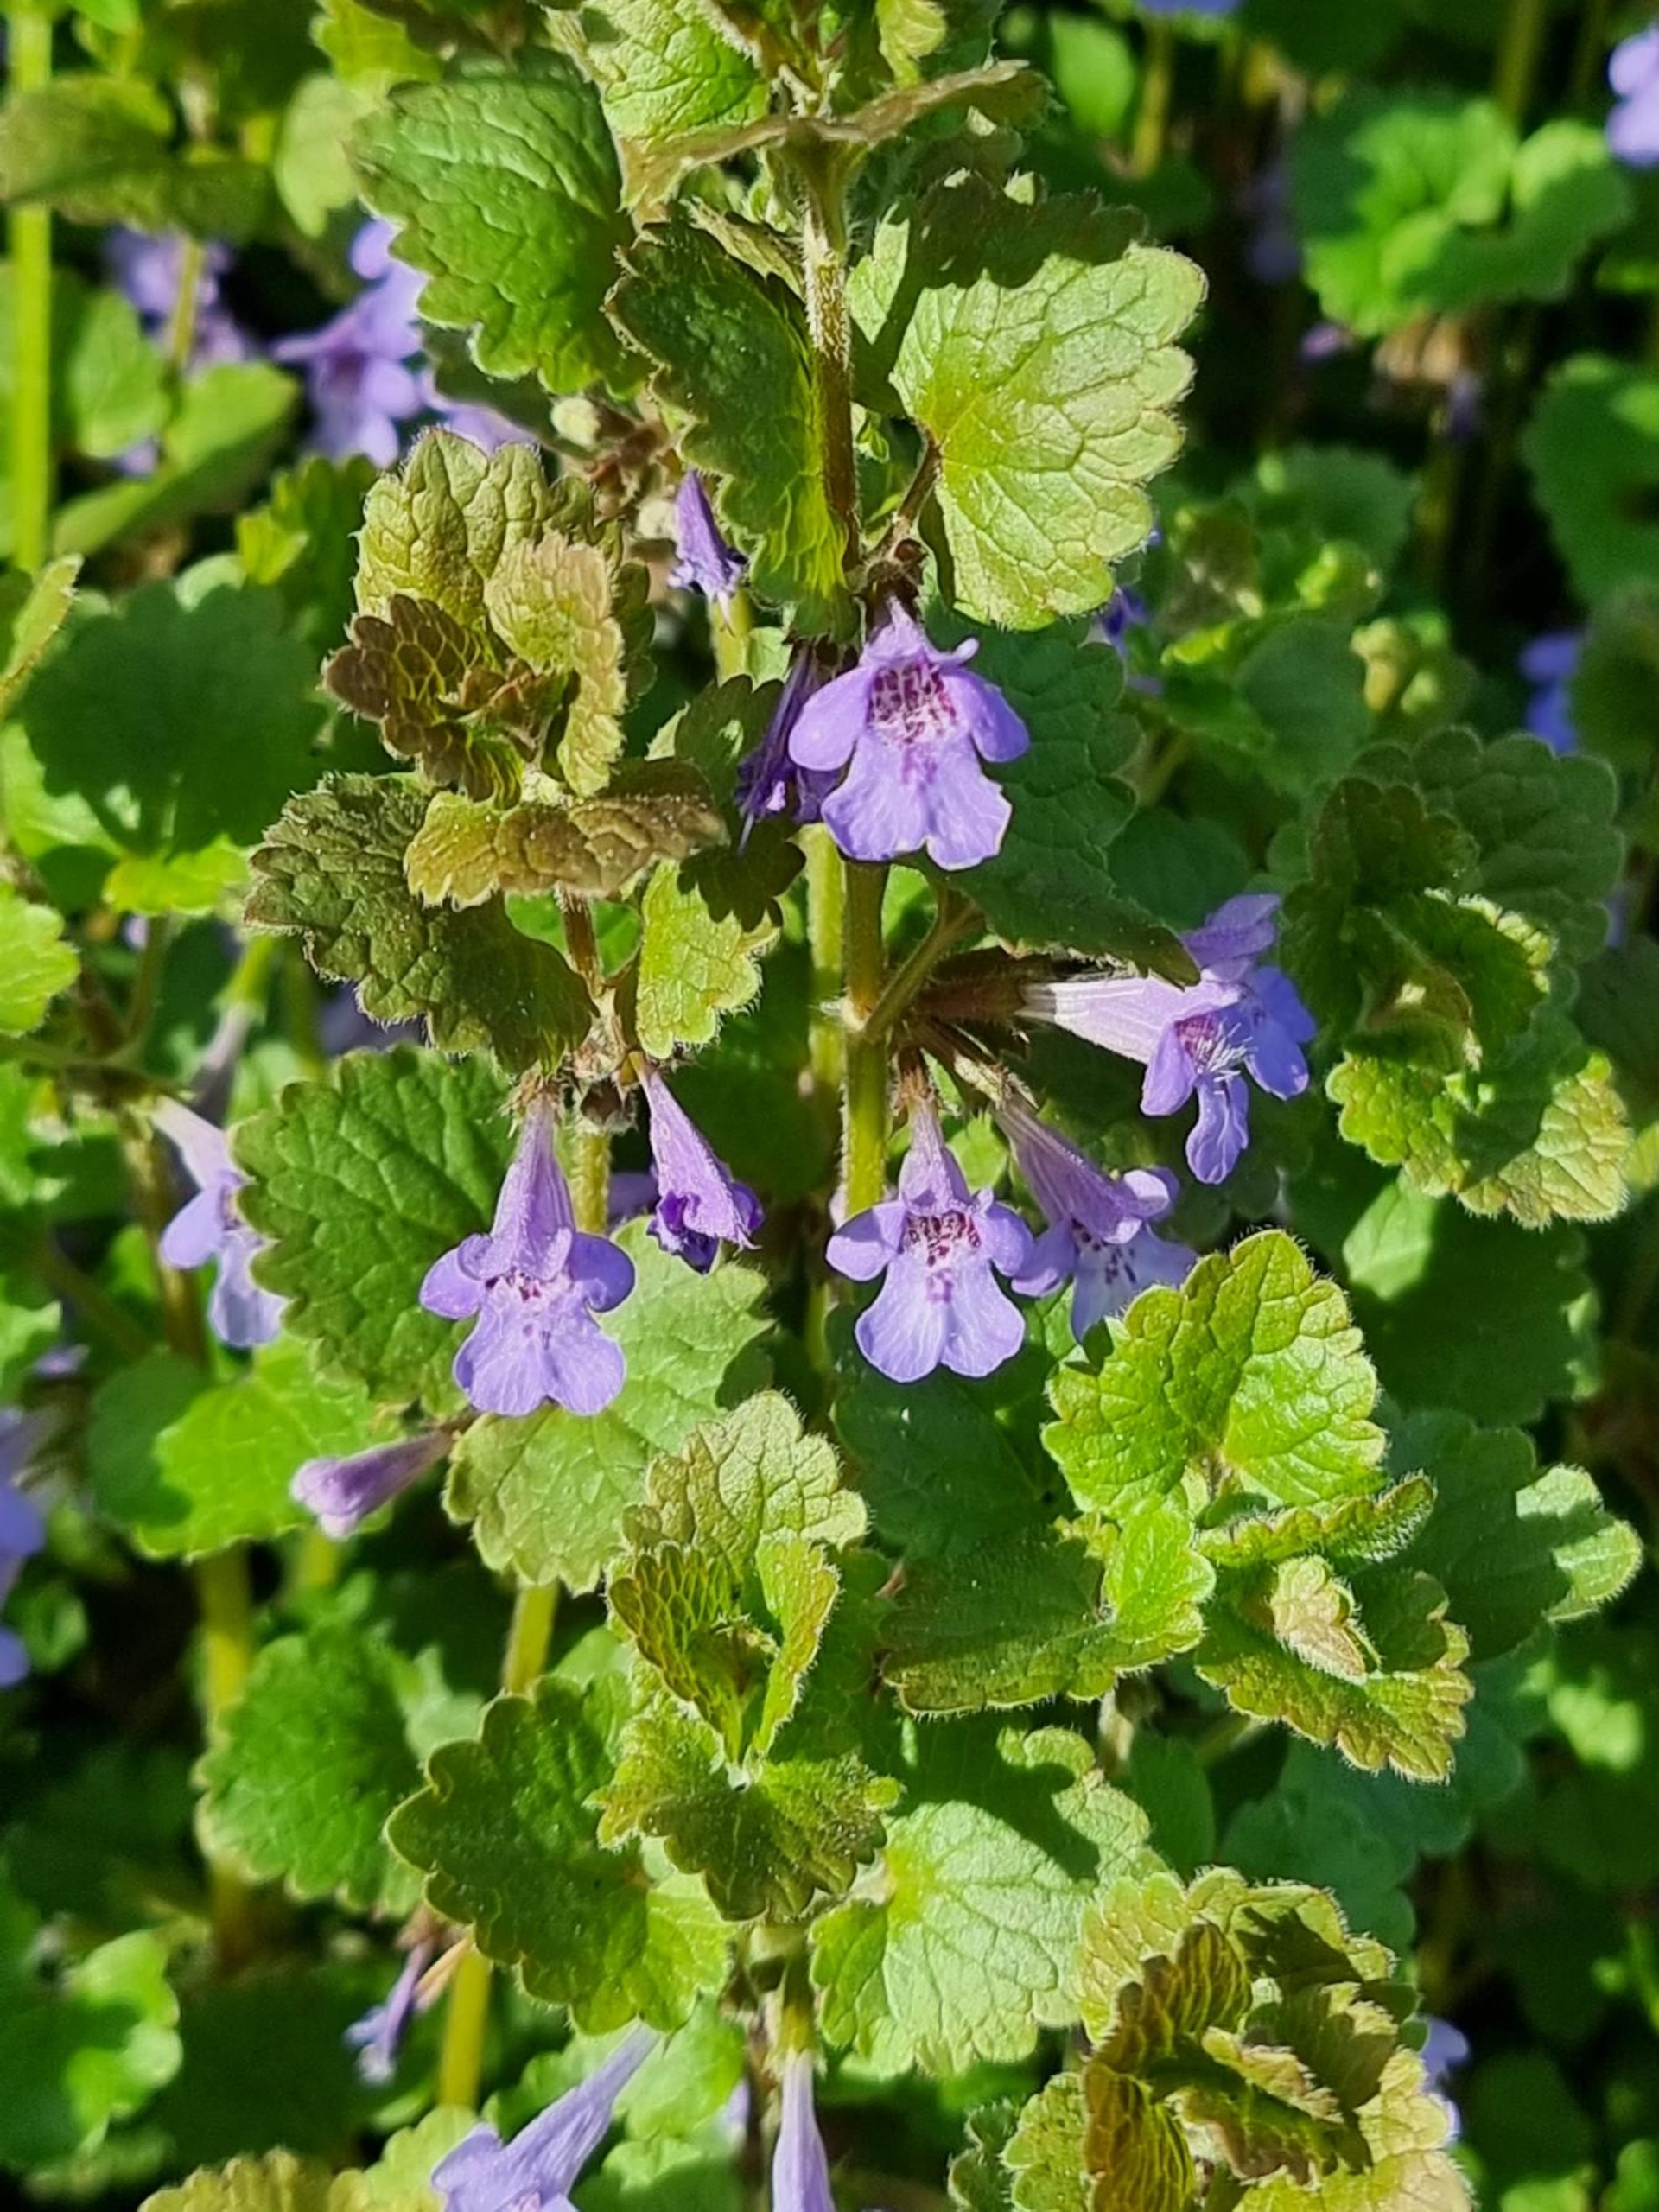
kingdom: Plantae
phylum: Tracheophyta
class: Magnoliopsida
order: Lamiales
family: Lamiaceae
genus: Glechoma
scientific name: Glechoma hederacea
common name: Korsknap
